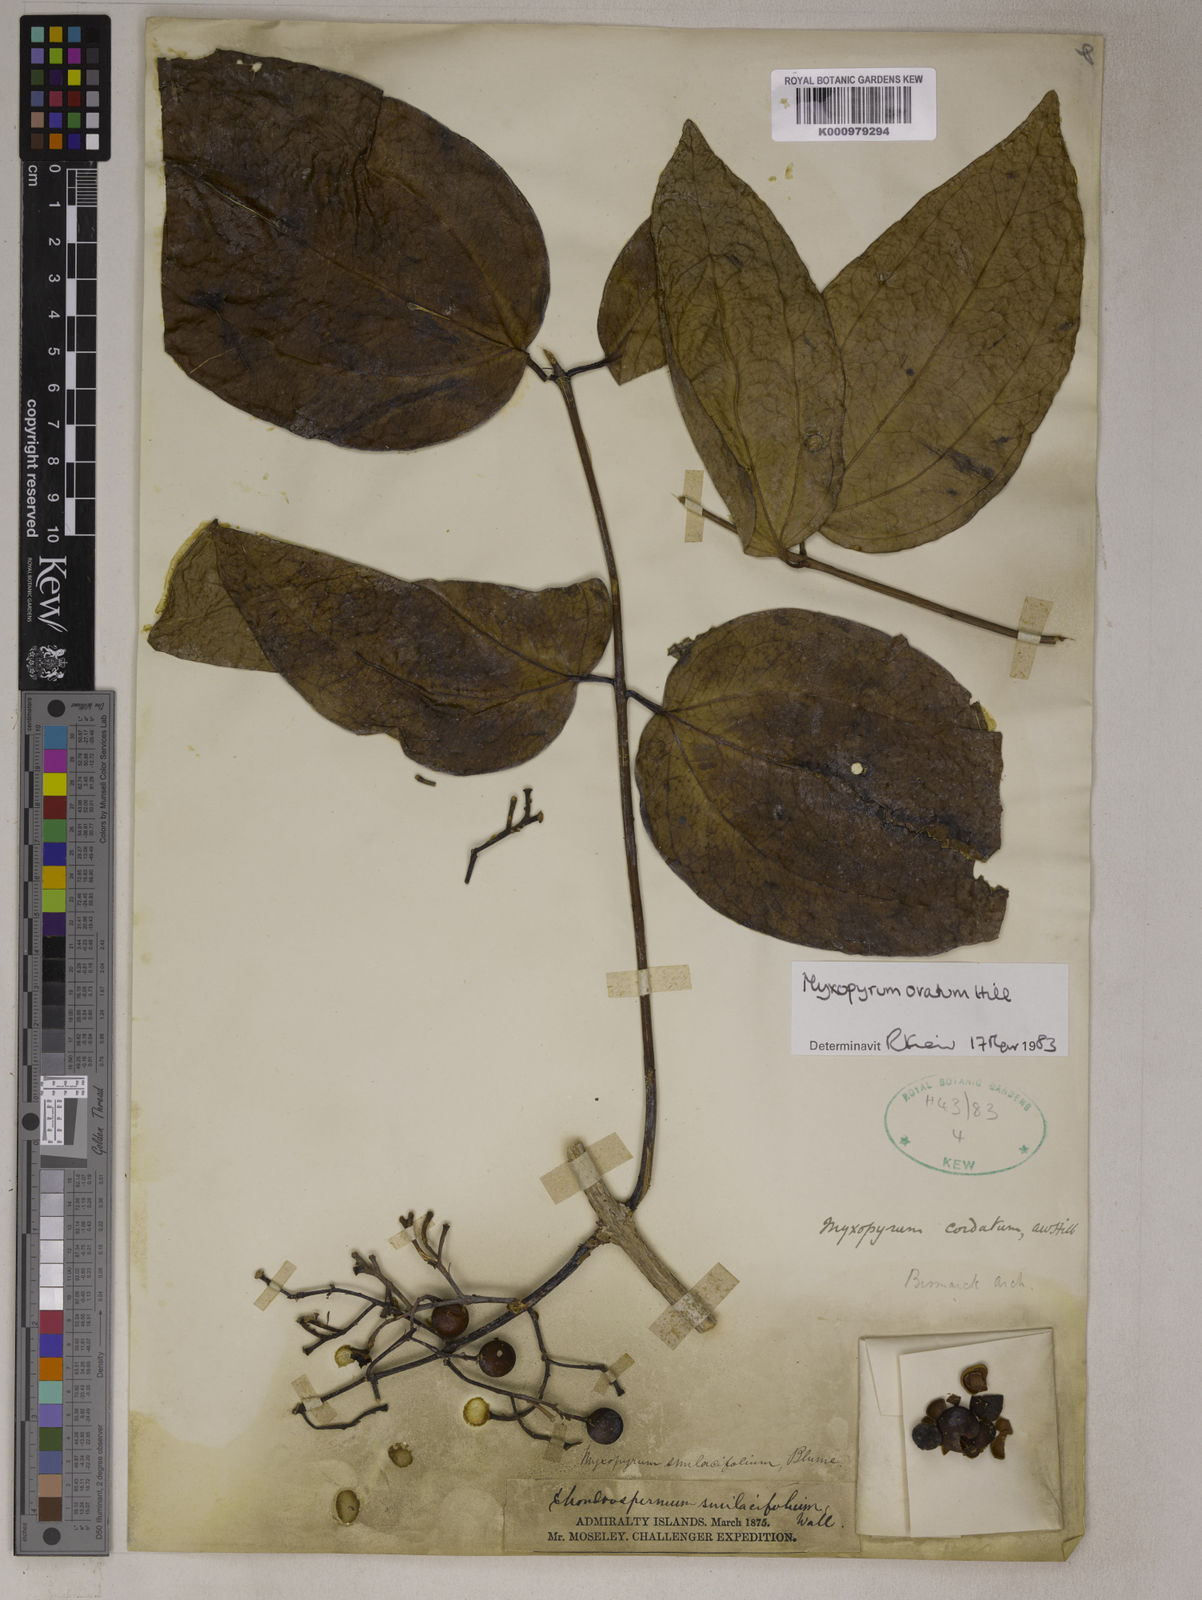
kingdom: Plantae
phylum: Tracheophyta
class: Magnoliopsida
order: Lamiales
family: Oleaceae
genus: Myxopyrum
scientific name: Myxopyrum ovatum
